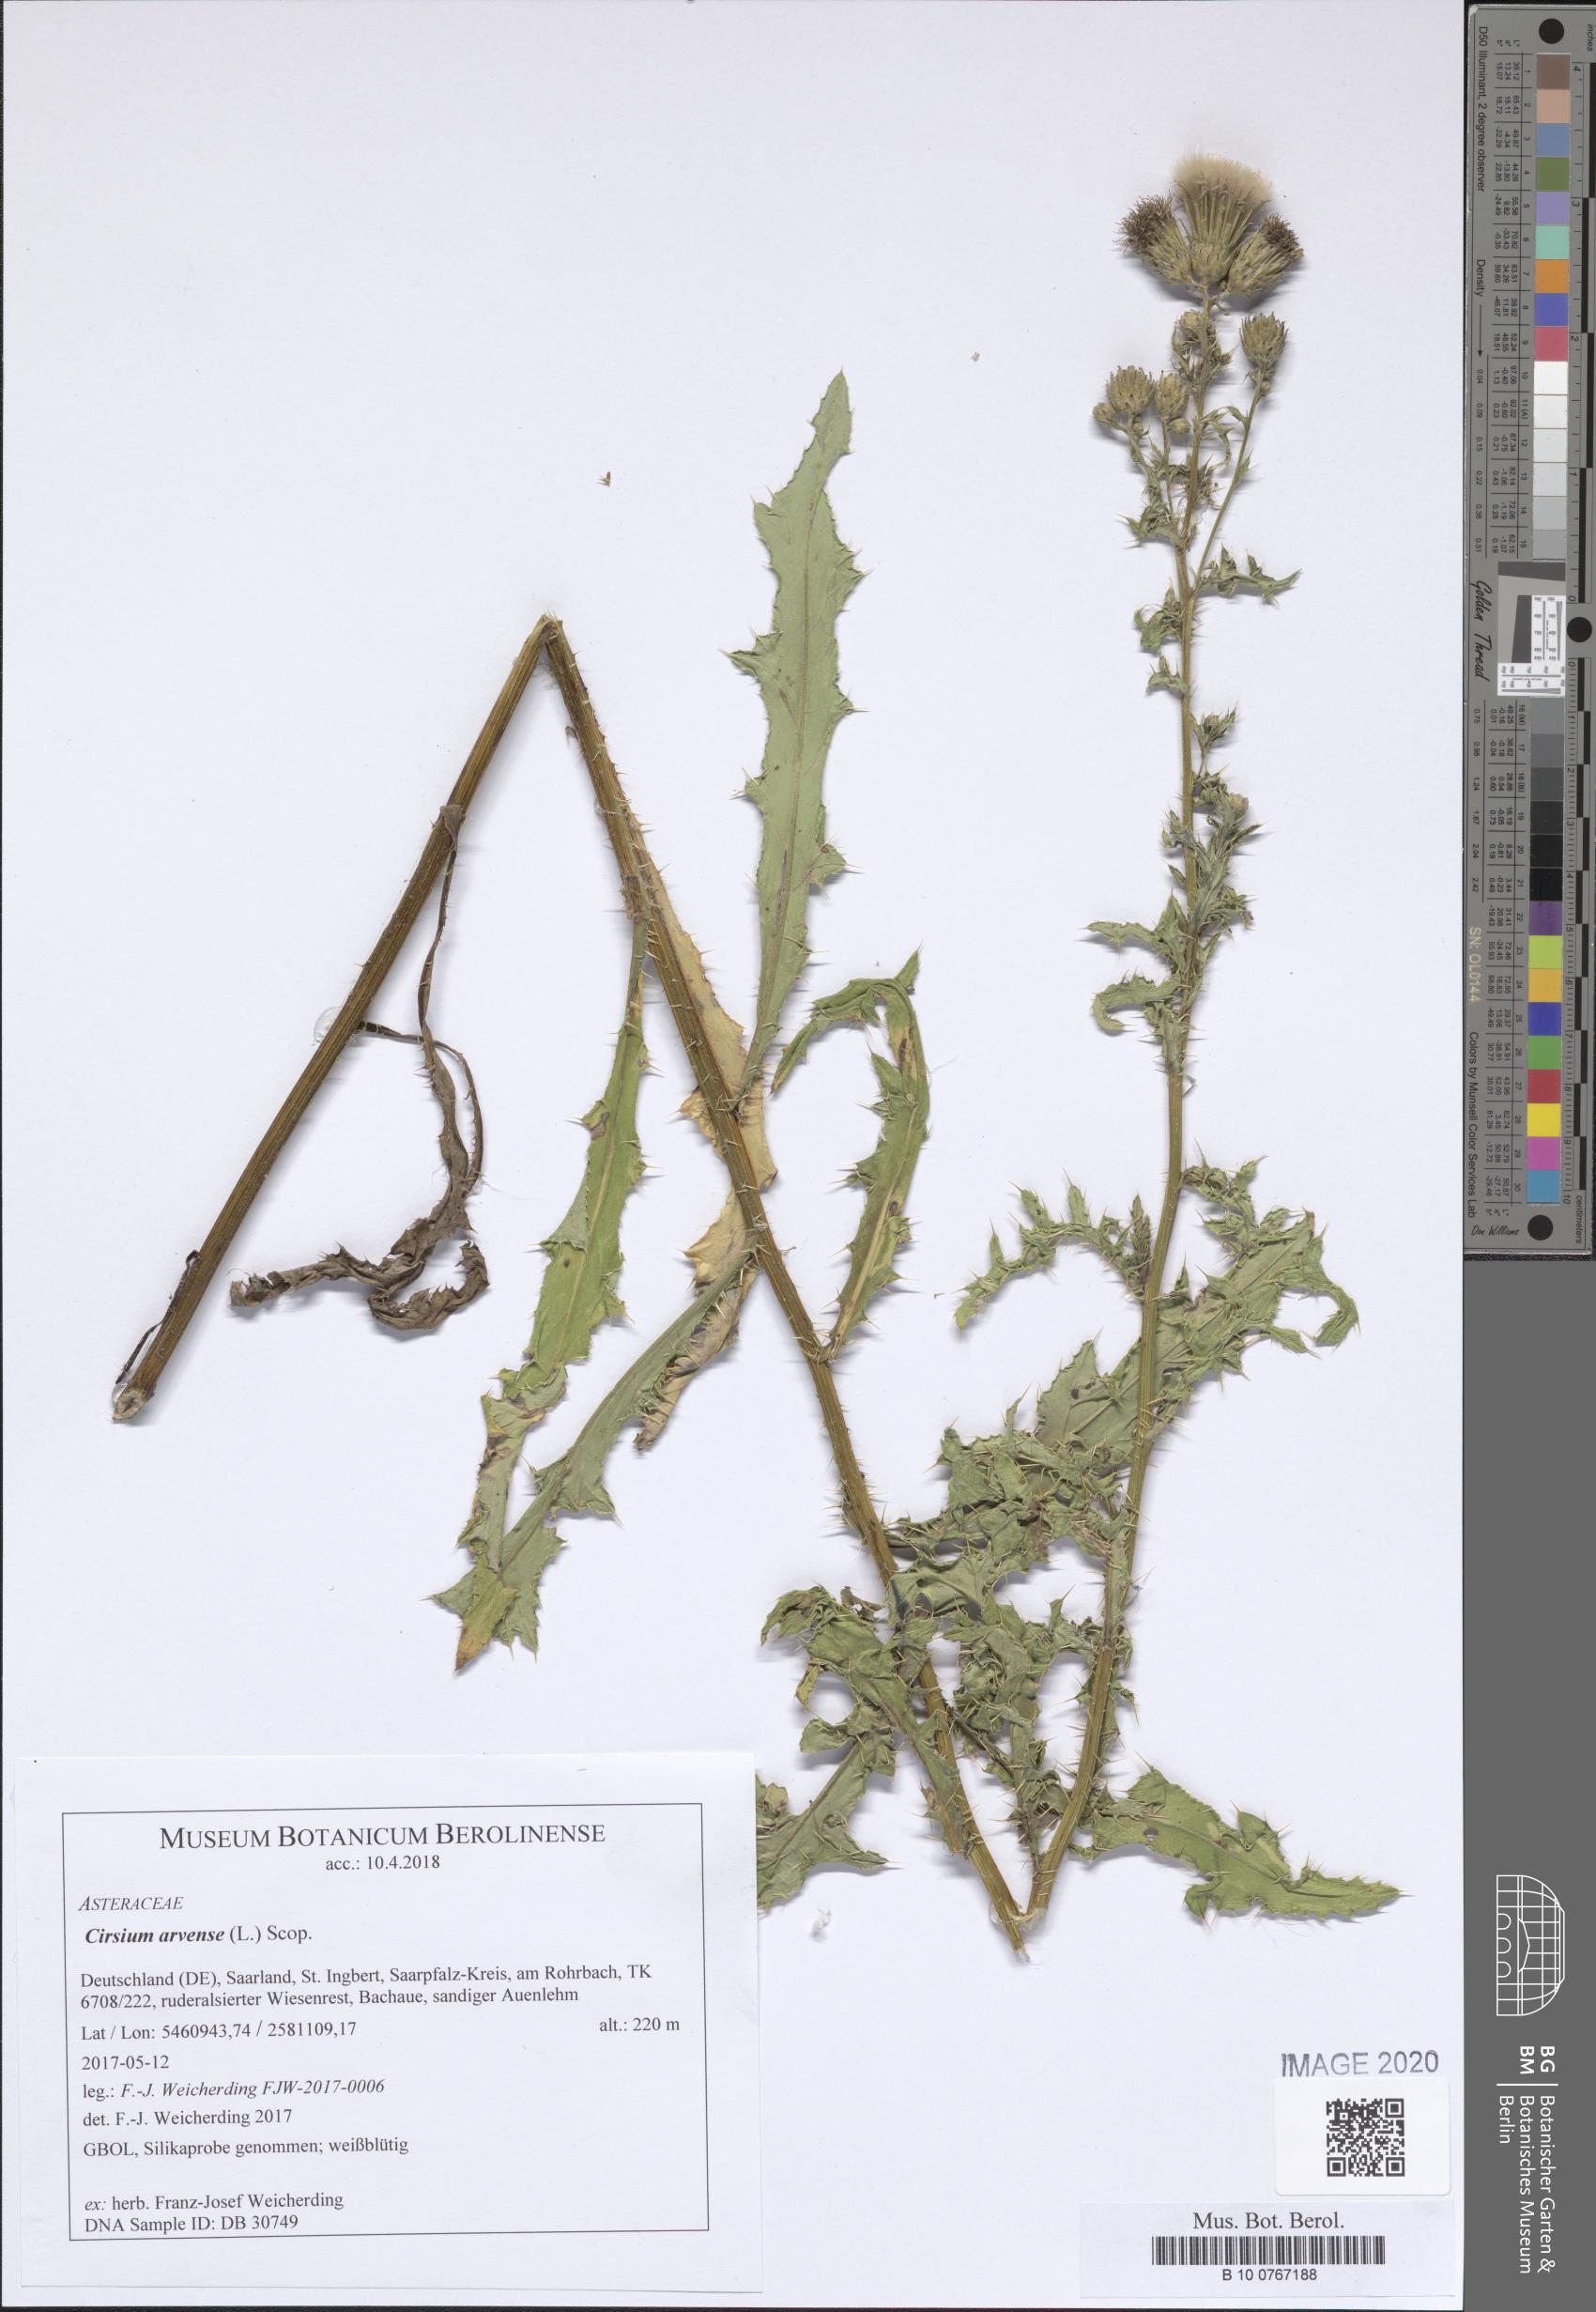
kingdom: Plantae
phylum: Tracheophyta
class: Magnoliopsida
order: Asterales
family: Asteraceae
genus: Cirsium
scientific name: Cirsium arvense
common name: Creeping thistle
